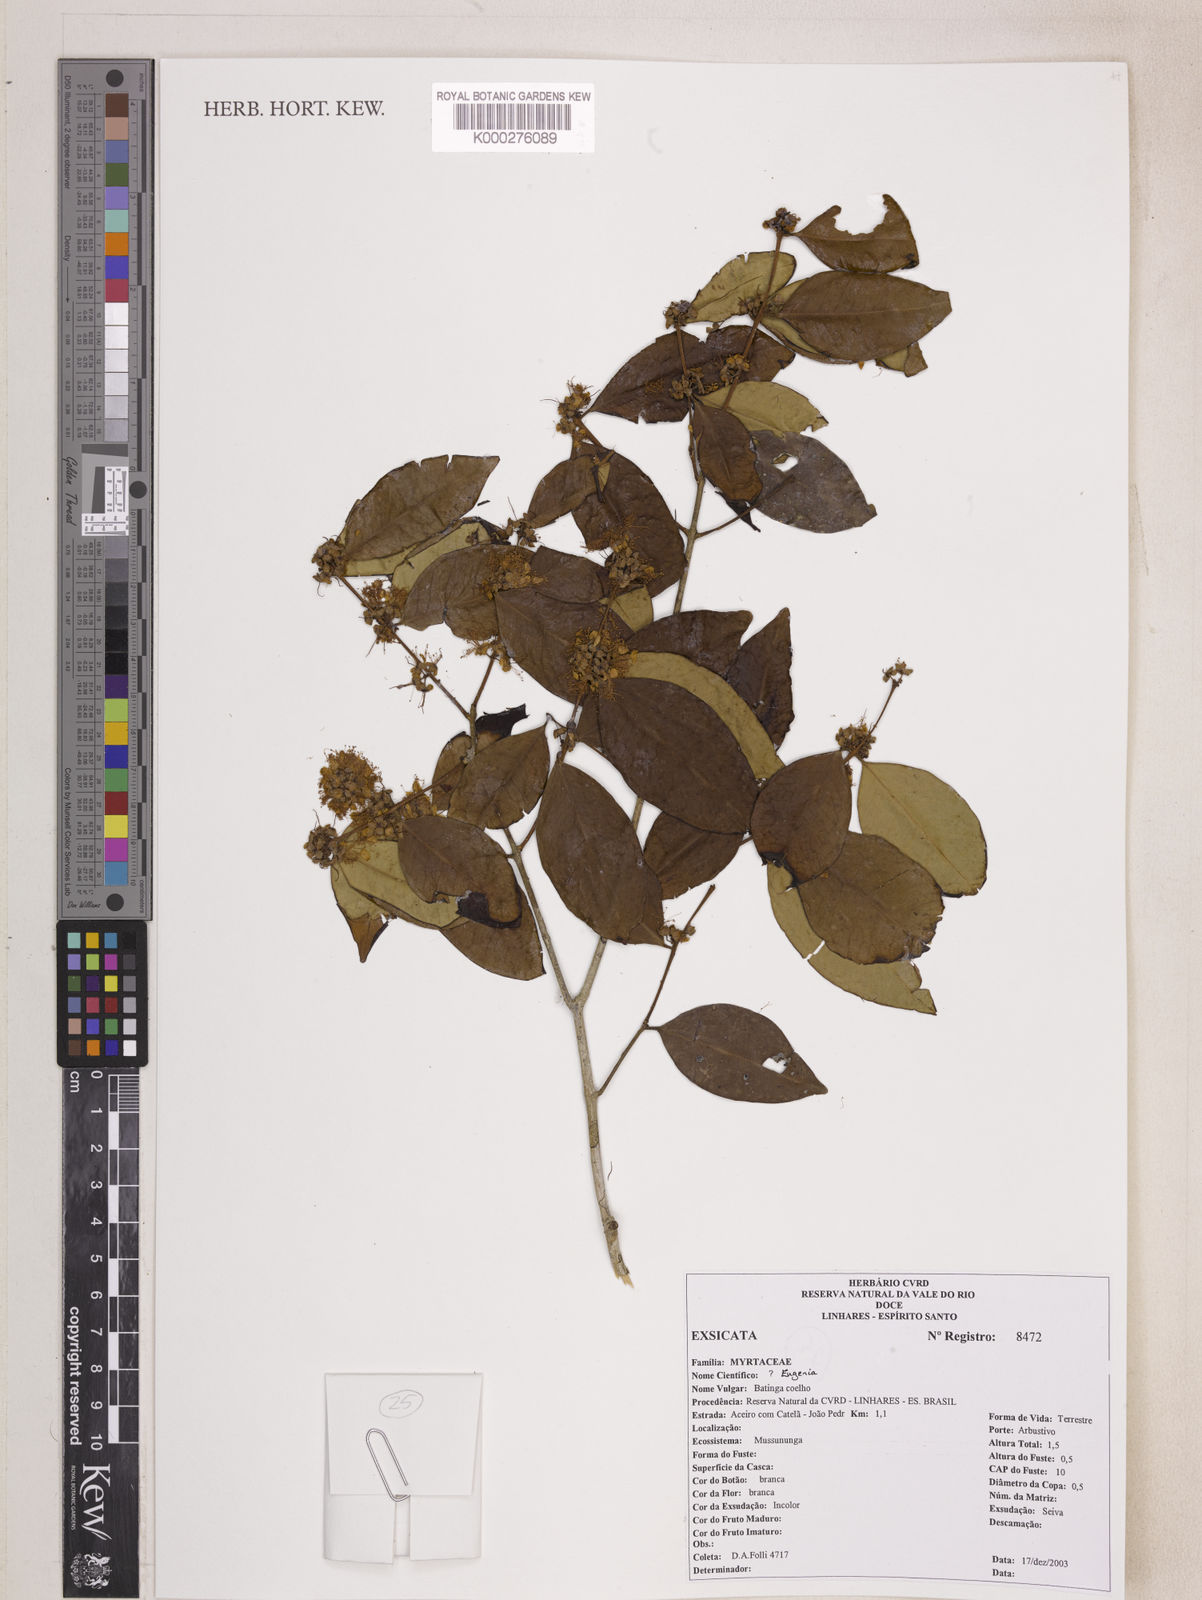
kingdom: Plantae
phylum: Tracheophyta
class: Magnoliopsida
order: Myrtales
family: Myrtaceae
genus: Eugenia
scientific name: Eugenia brejoensis
